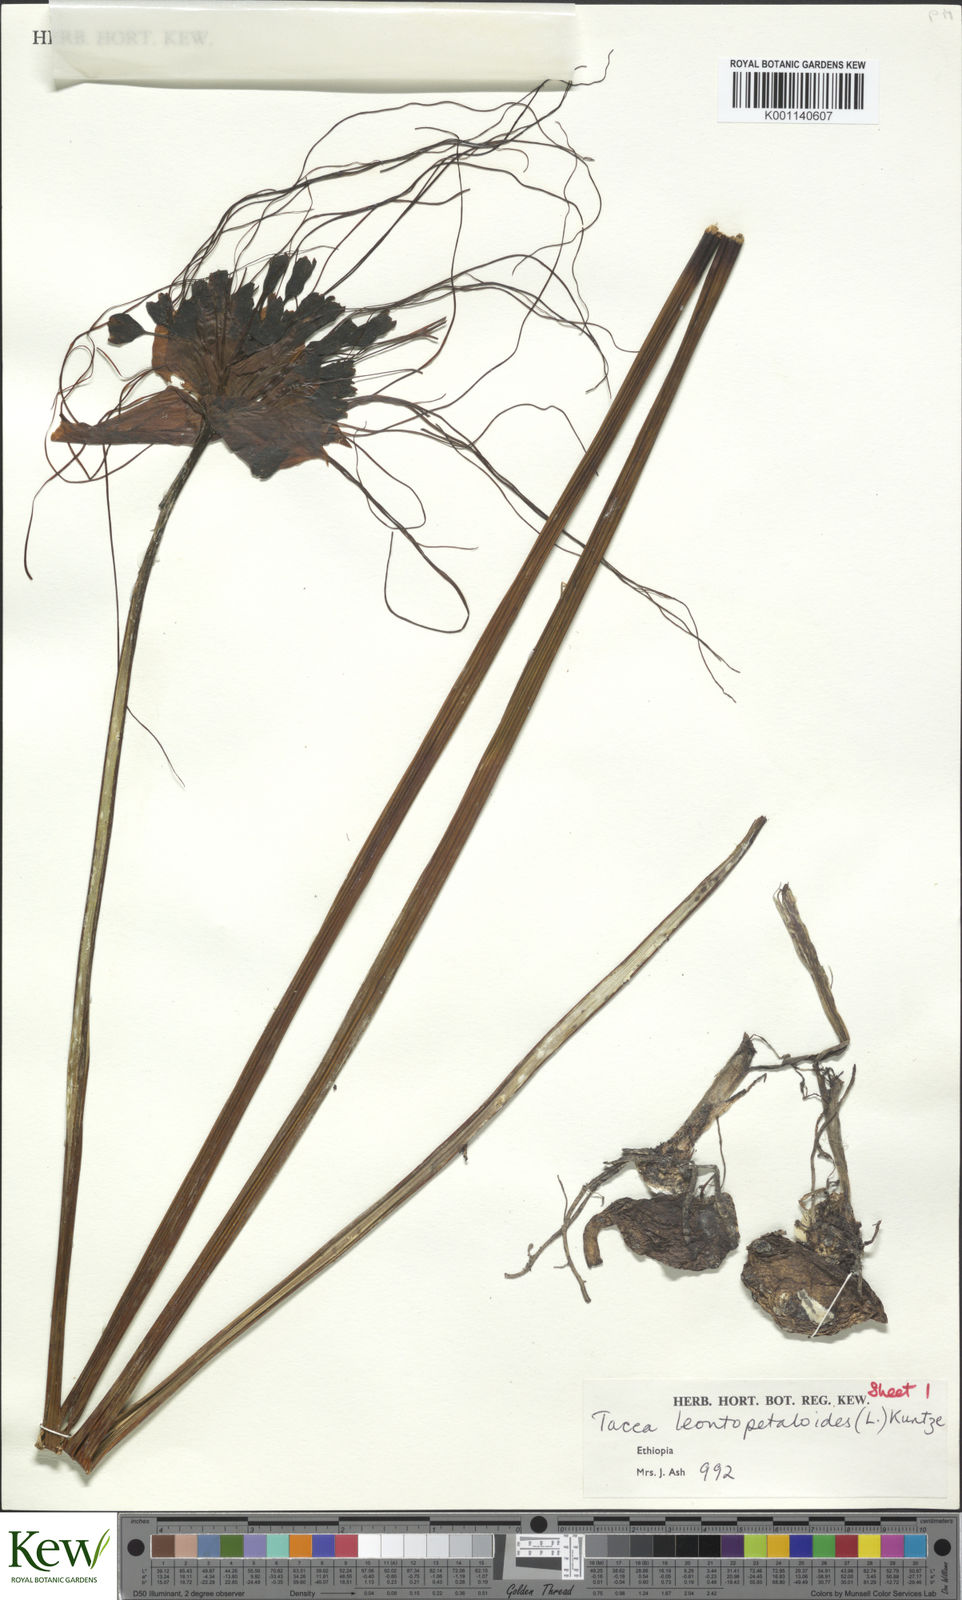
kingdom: Plantae
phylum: Tracheophyta
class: Liliopsida
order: Dioscoreales
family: Dioscoreaceae
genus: Tacca
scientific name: Tacca leontopetaloides
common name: Arrowroot
